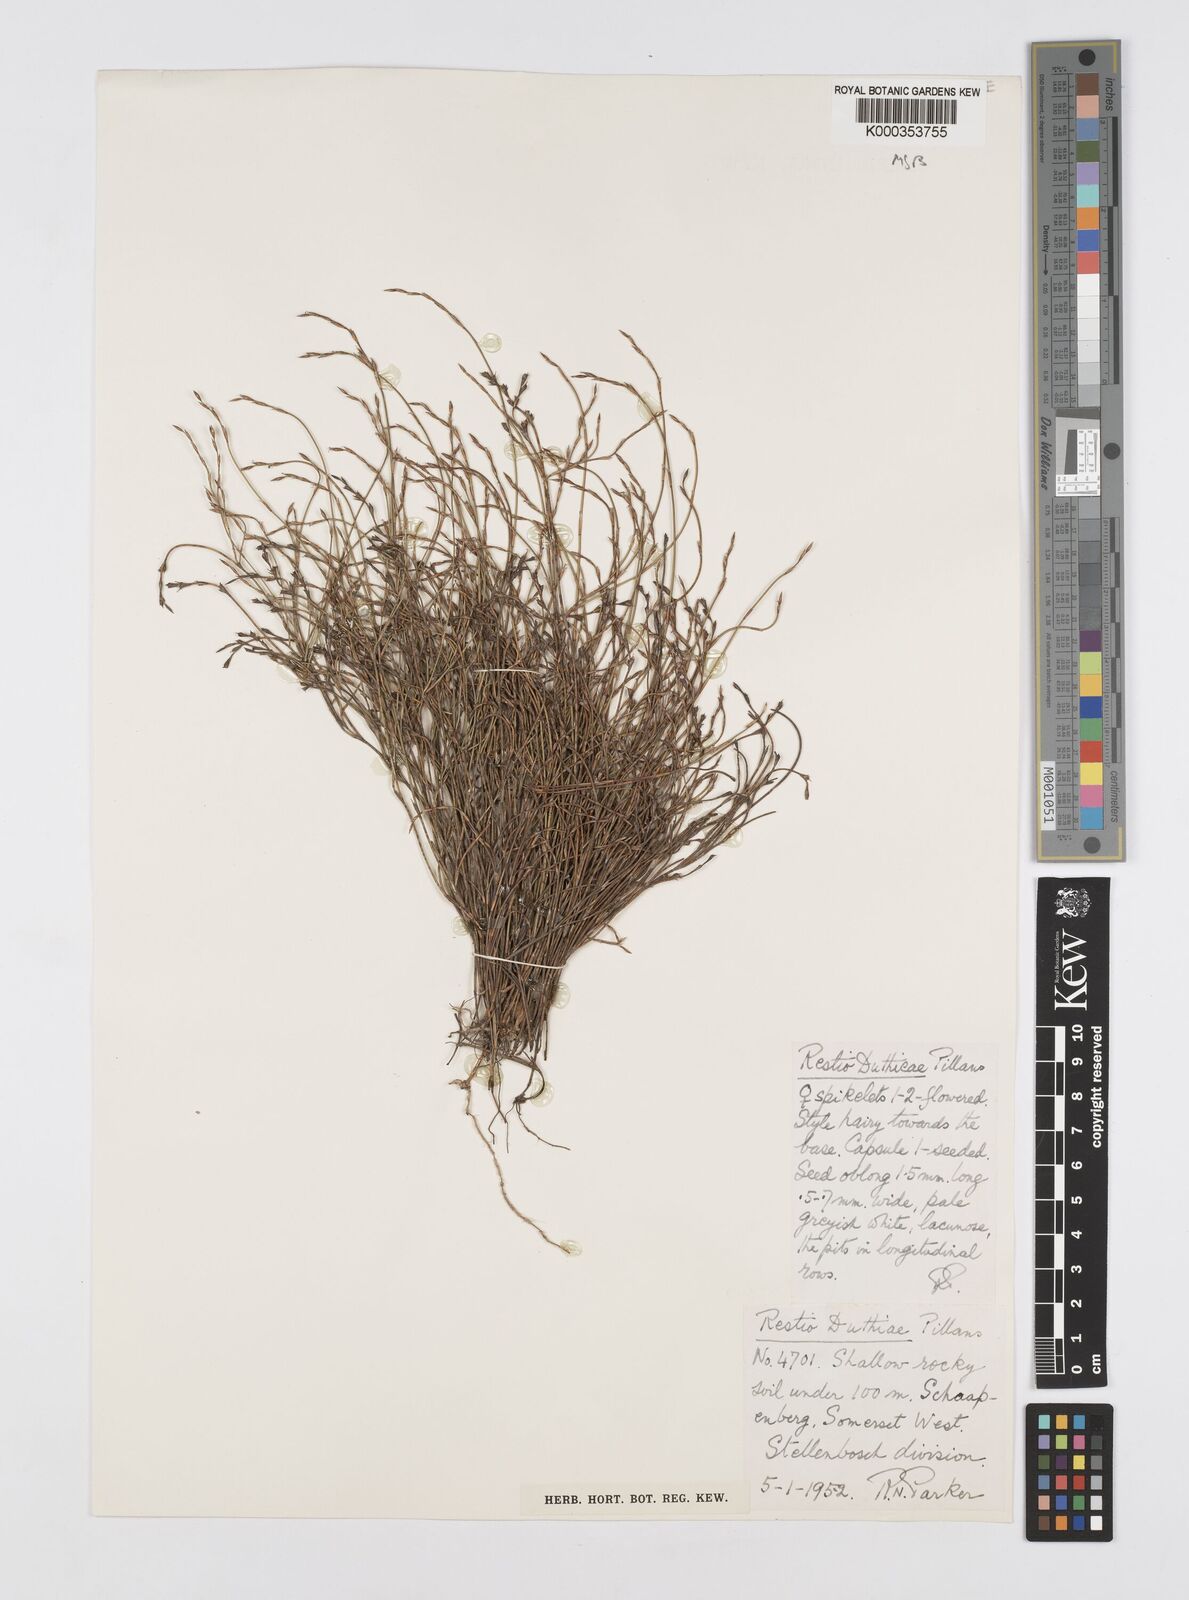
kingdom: Plantae
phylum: Tracheophyta
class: Liliopsida
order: Poales
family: Restionaceae
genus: Restio
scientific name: Restio duthieae
